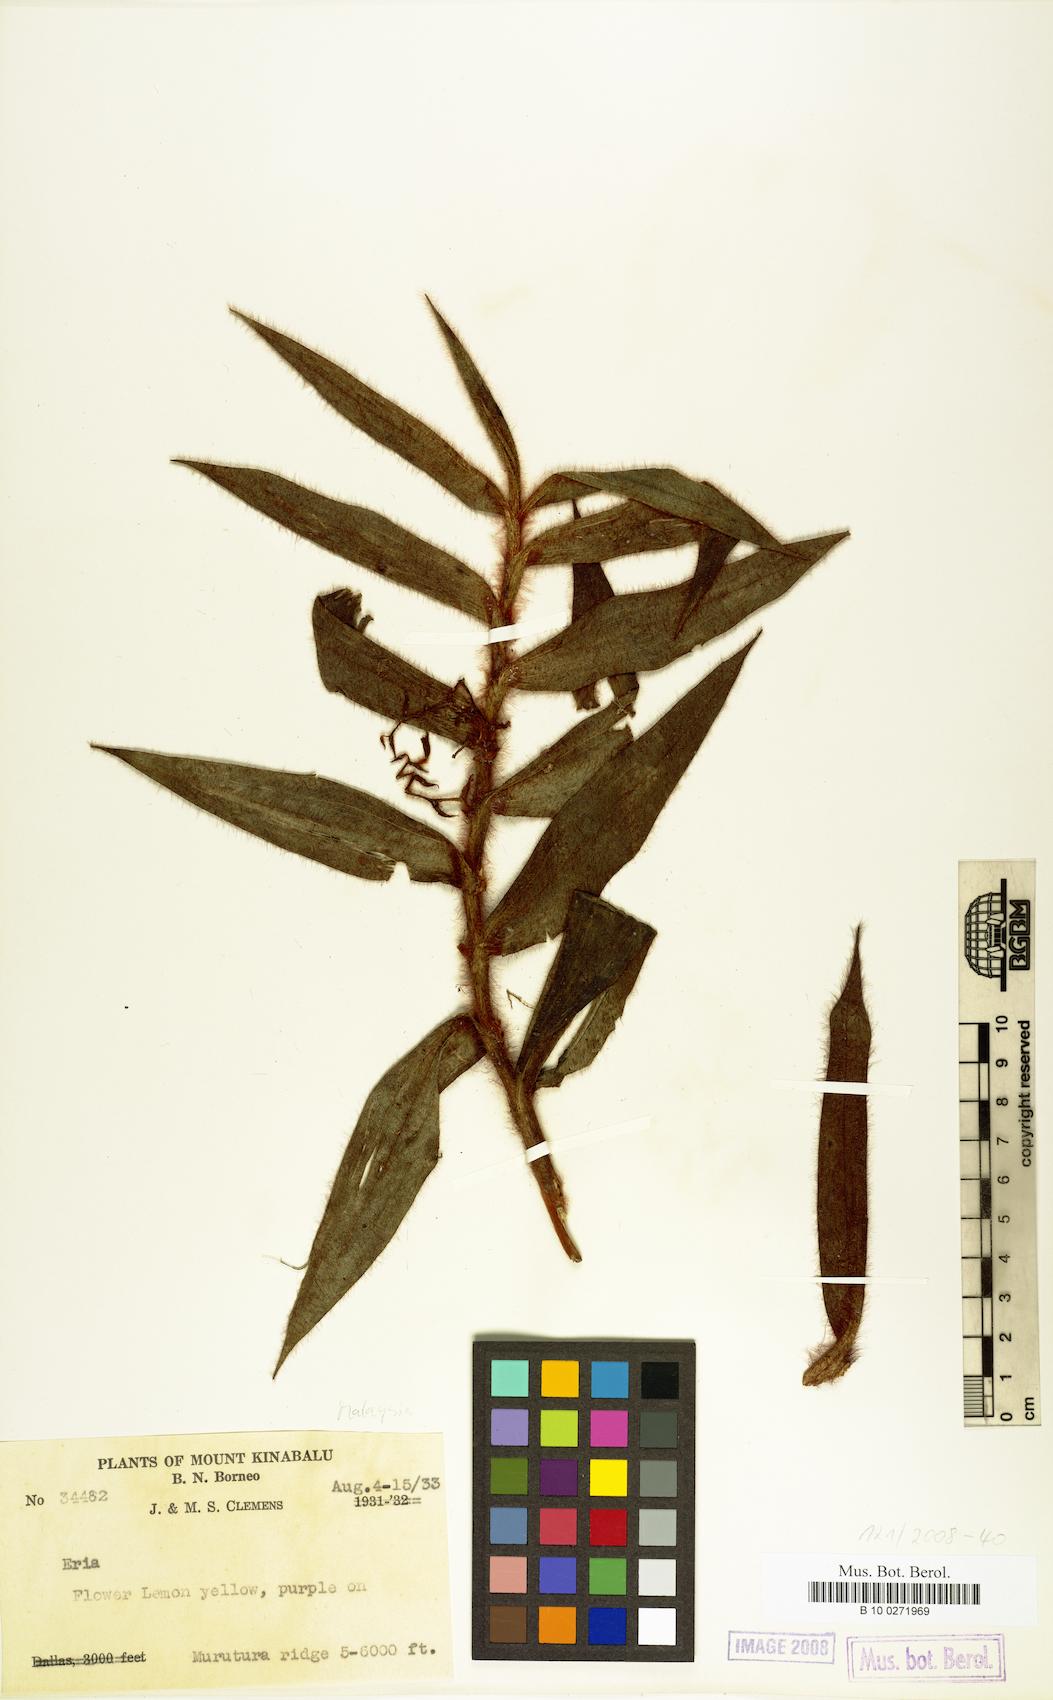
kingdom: Plantae
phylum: Tracheophyta
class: Liliopsida
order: Asparagales
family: Orchidaceae
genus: Eria
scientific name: Eria
